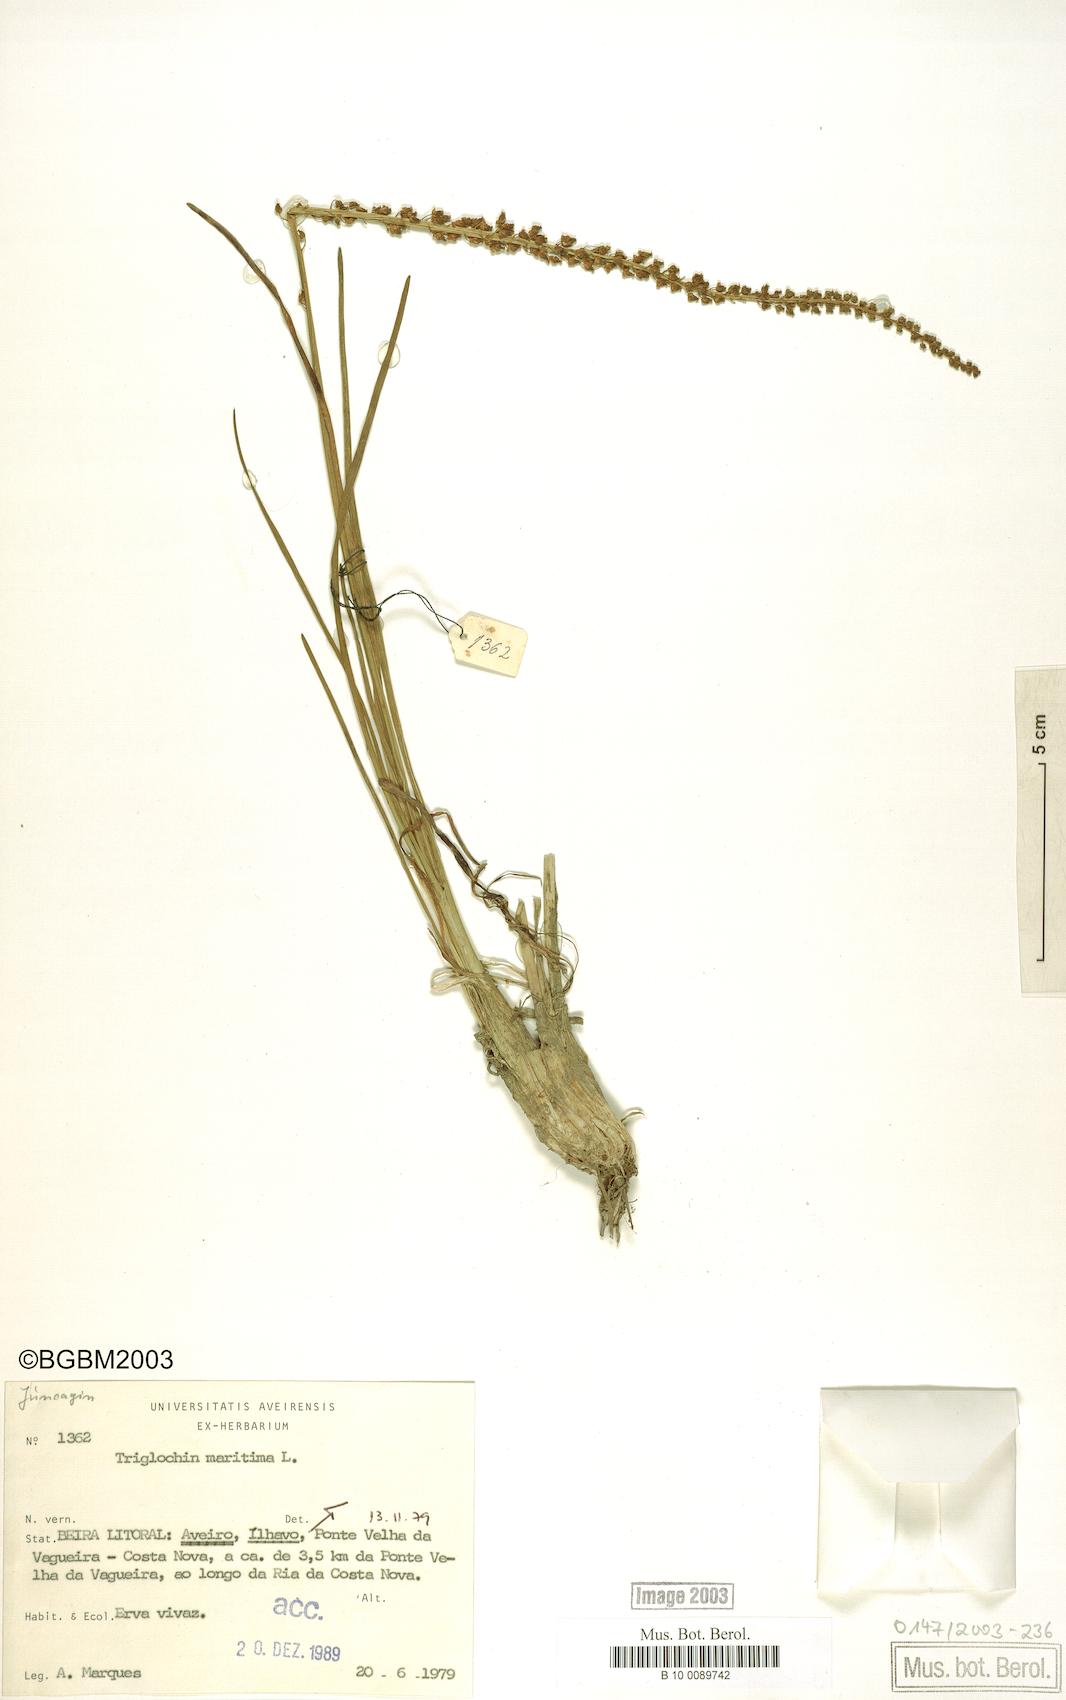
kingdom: Plantae
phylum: Tracheophyta
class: Liliopsida
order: Alismatales
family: Juncaginaceae
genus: Triglochin
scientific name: Triglochin maritima
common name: Sea arrowgrass
